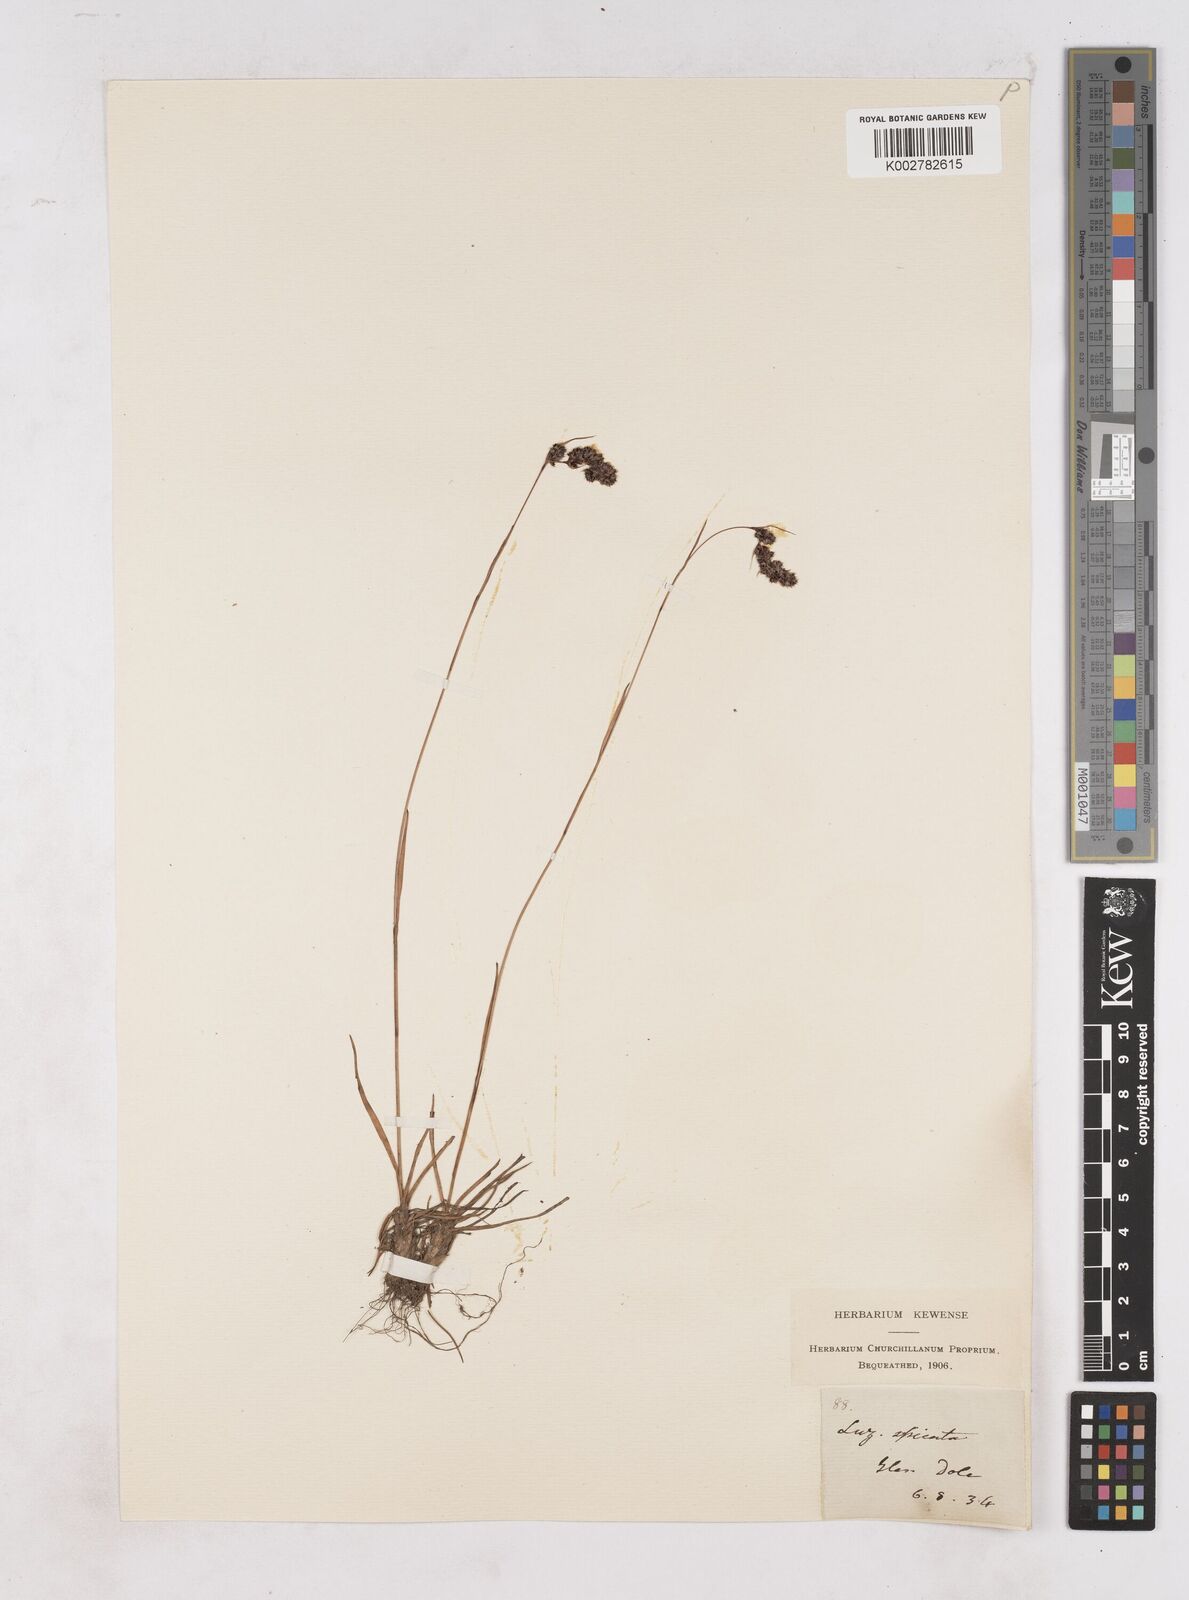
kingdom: Plantae
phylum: Tracheophyta
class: Liliopsida
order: Poales
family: Juncaceae
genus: Luzula
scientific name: Luzula spicata
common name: Spiked wood-rush
